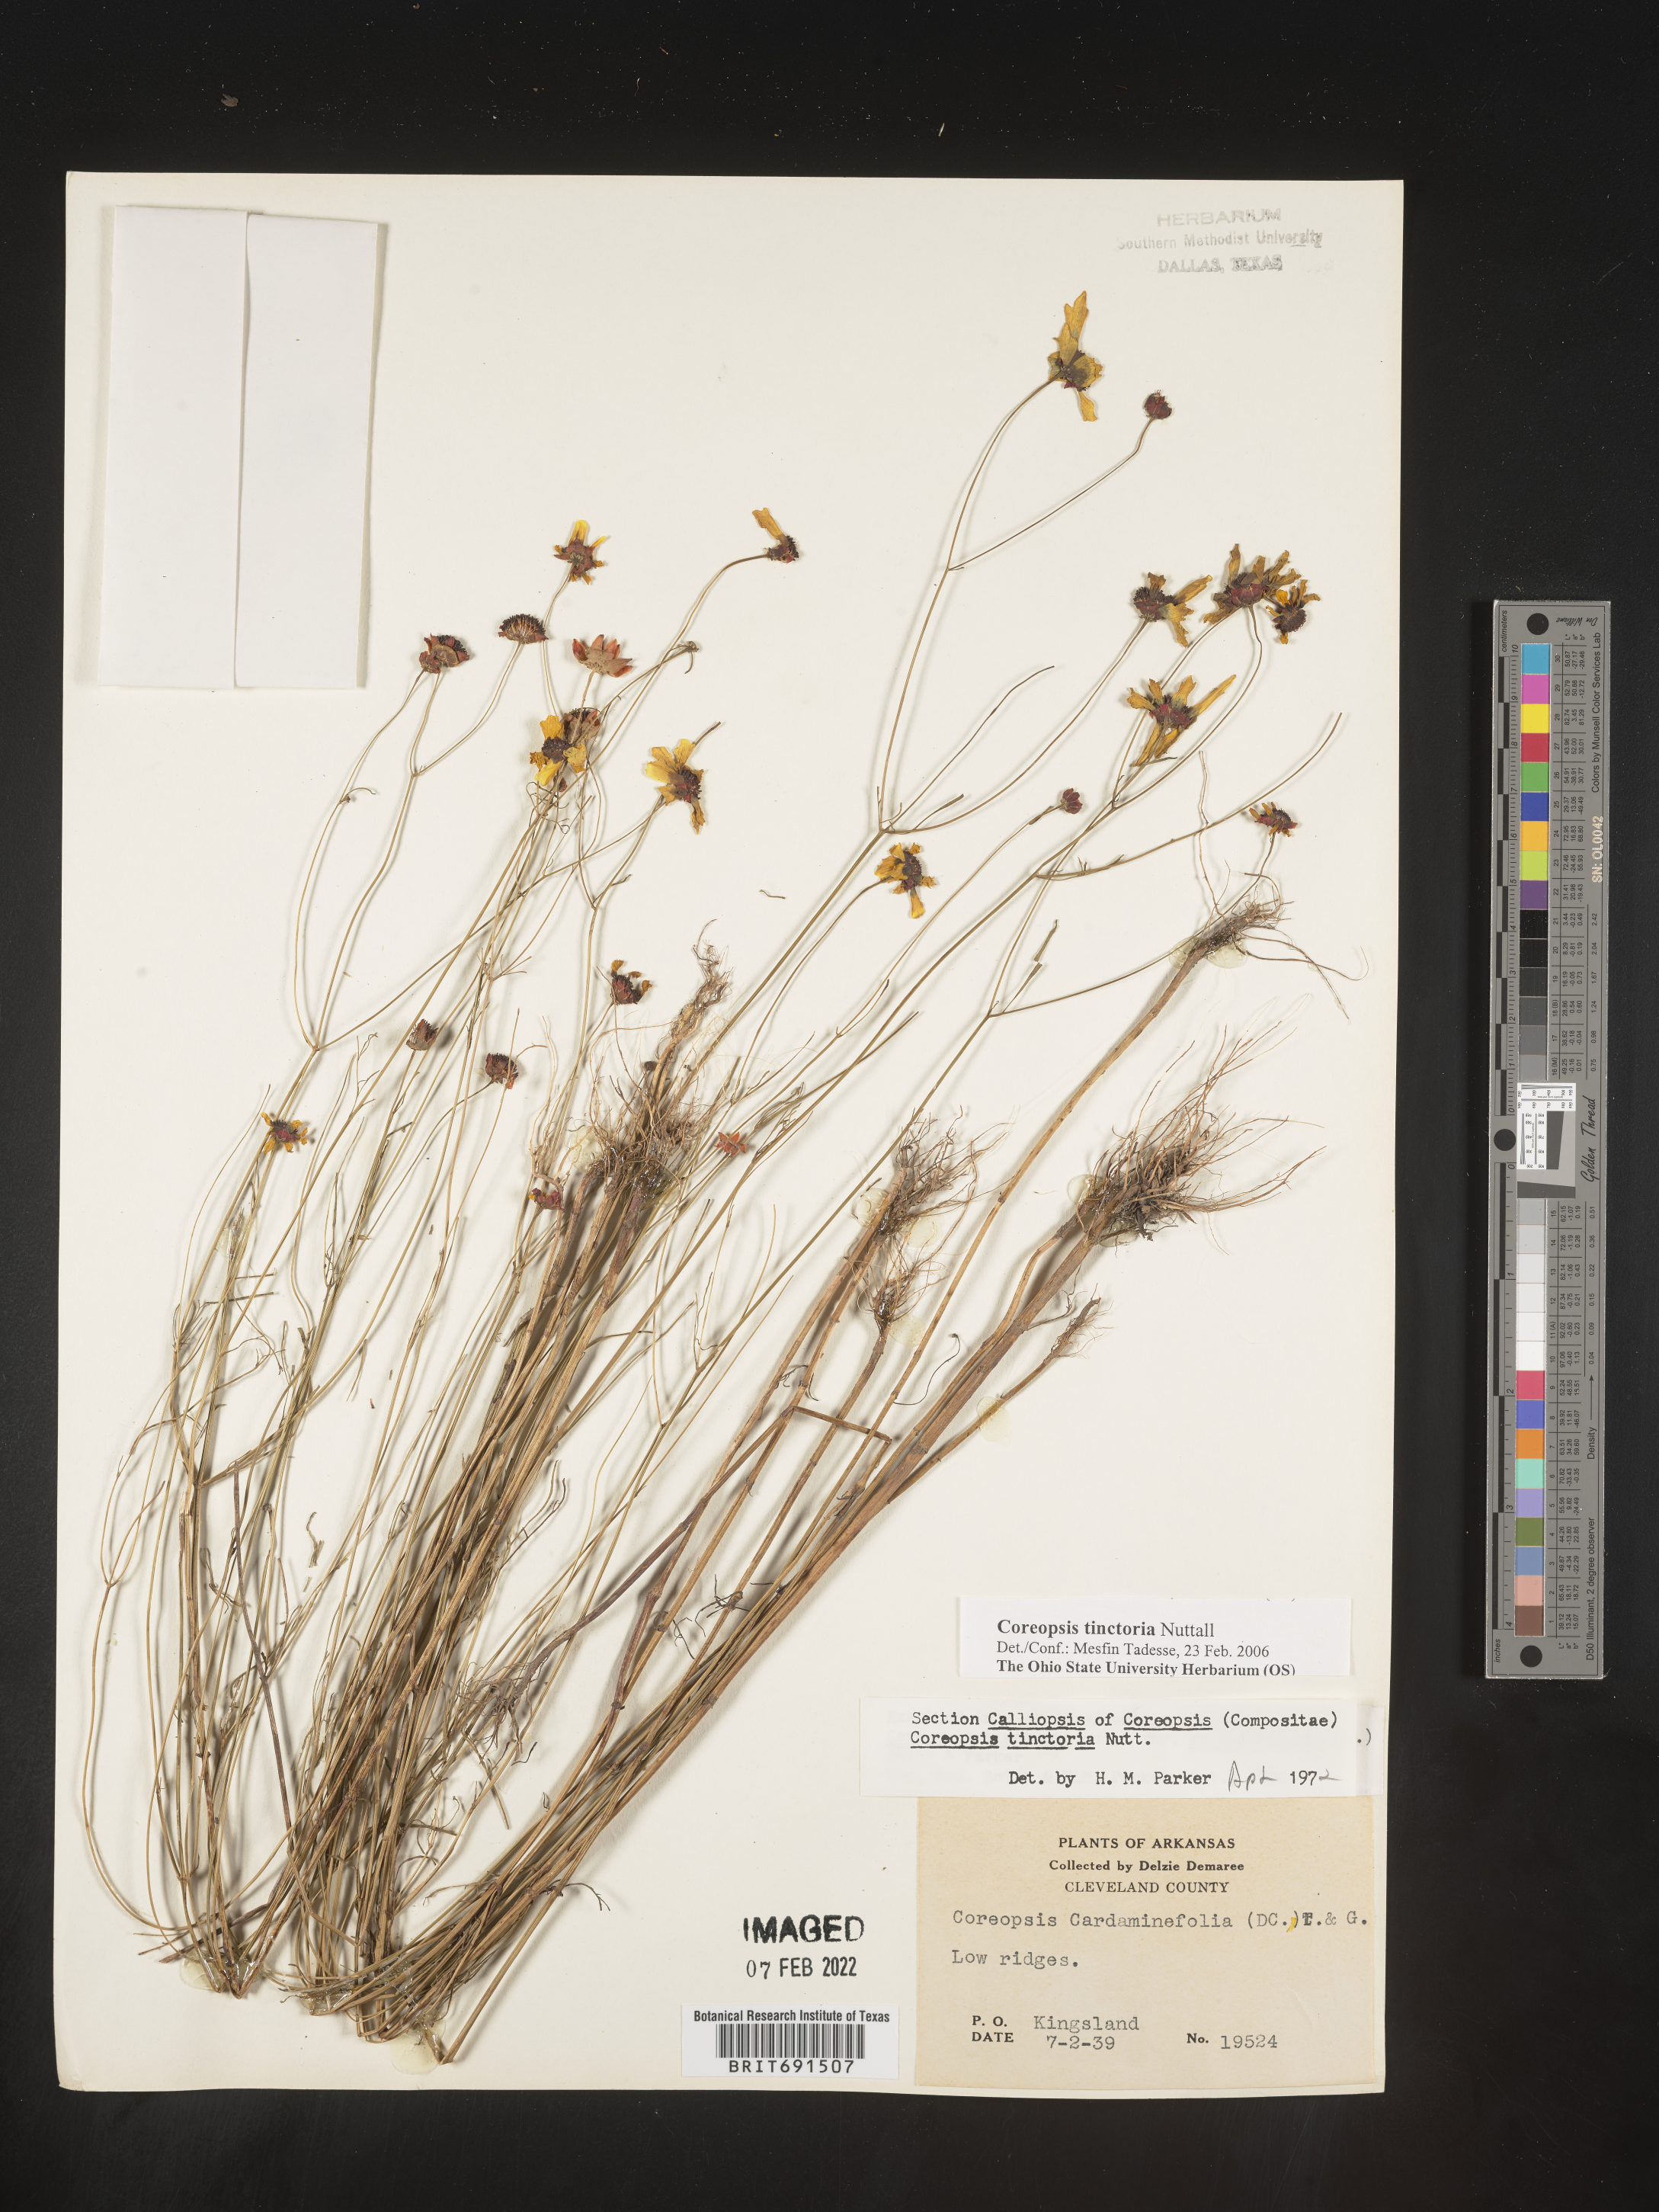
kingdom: Plantae
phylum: Tracheophyta
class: Magnoliopsida
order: Asterales
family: Asteraceae
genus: Coreopsis
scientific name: Coreopsis tinctoria
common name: Garden tickseed
